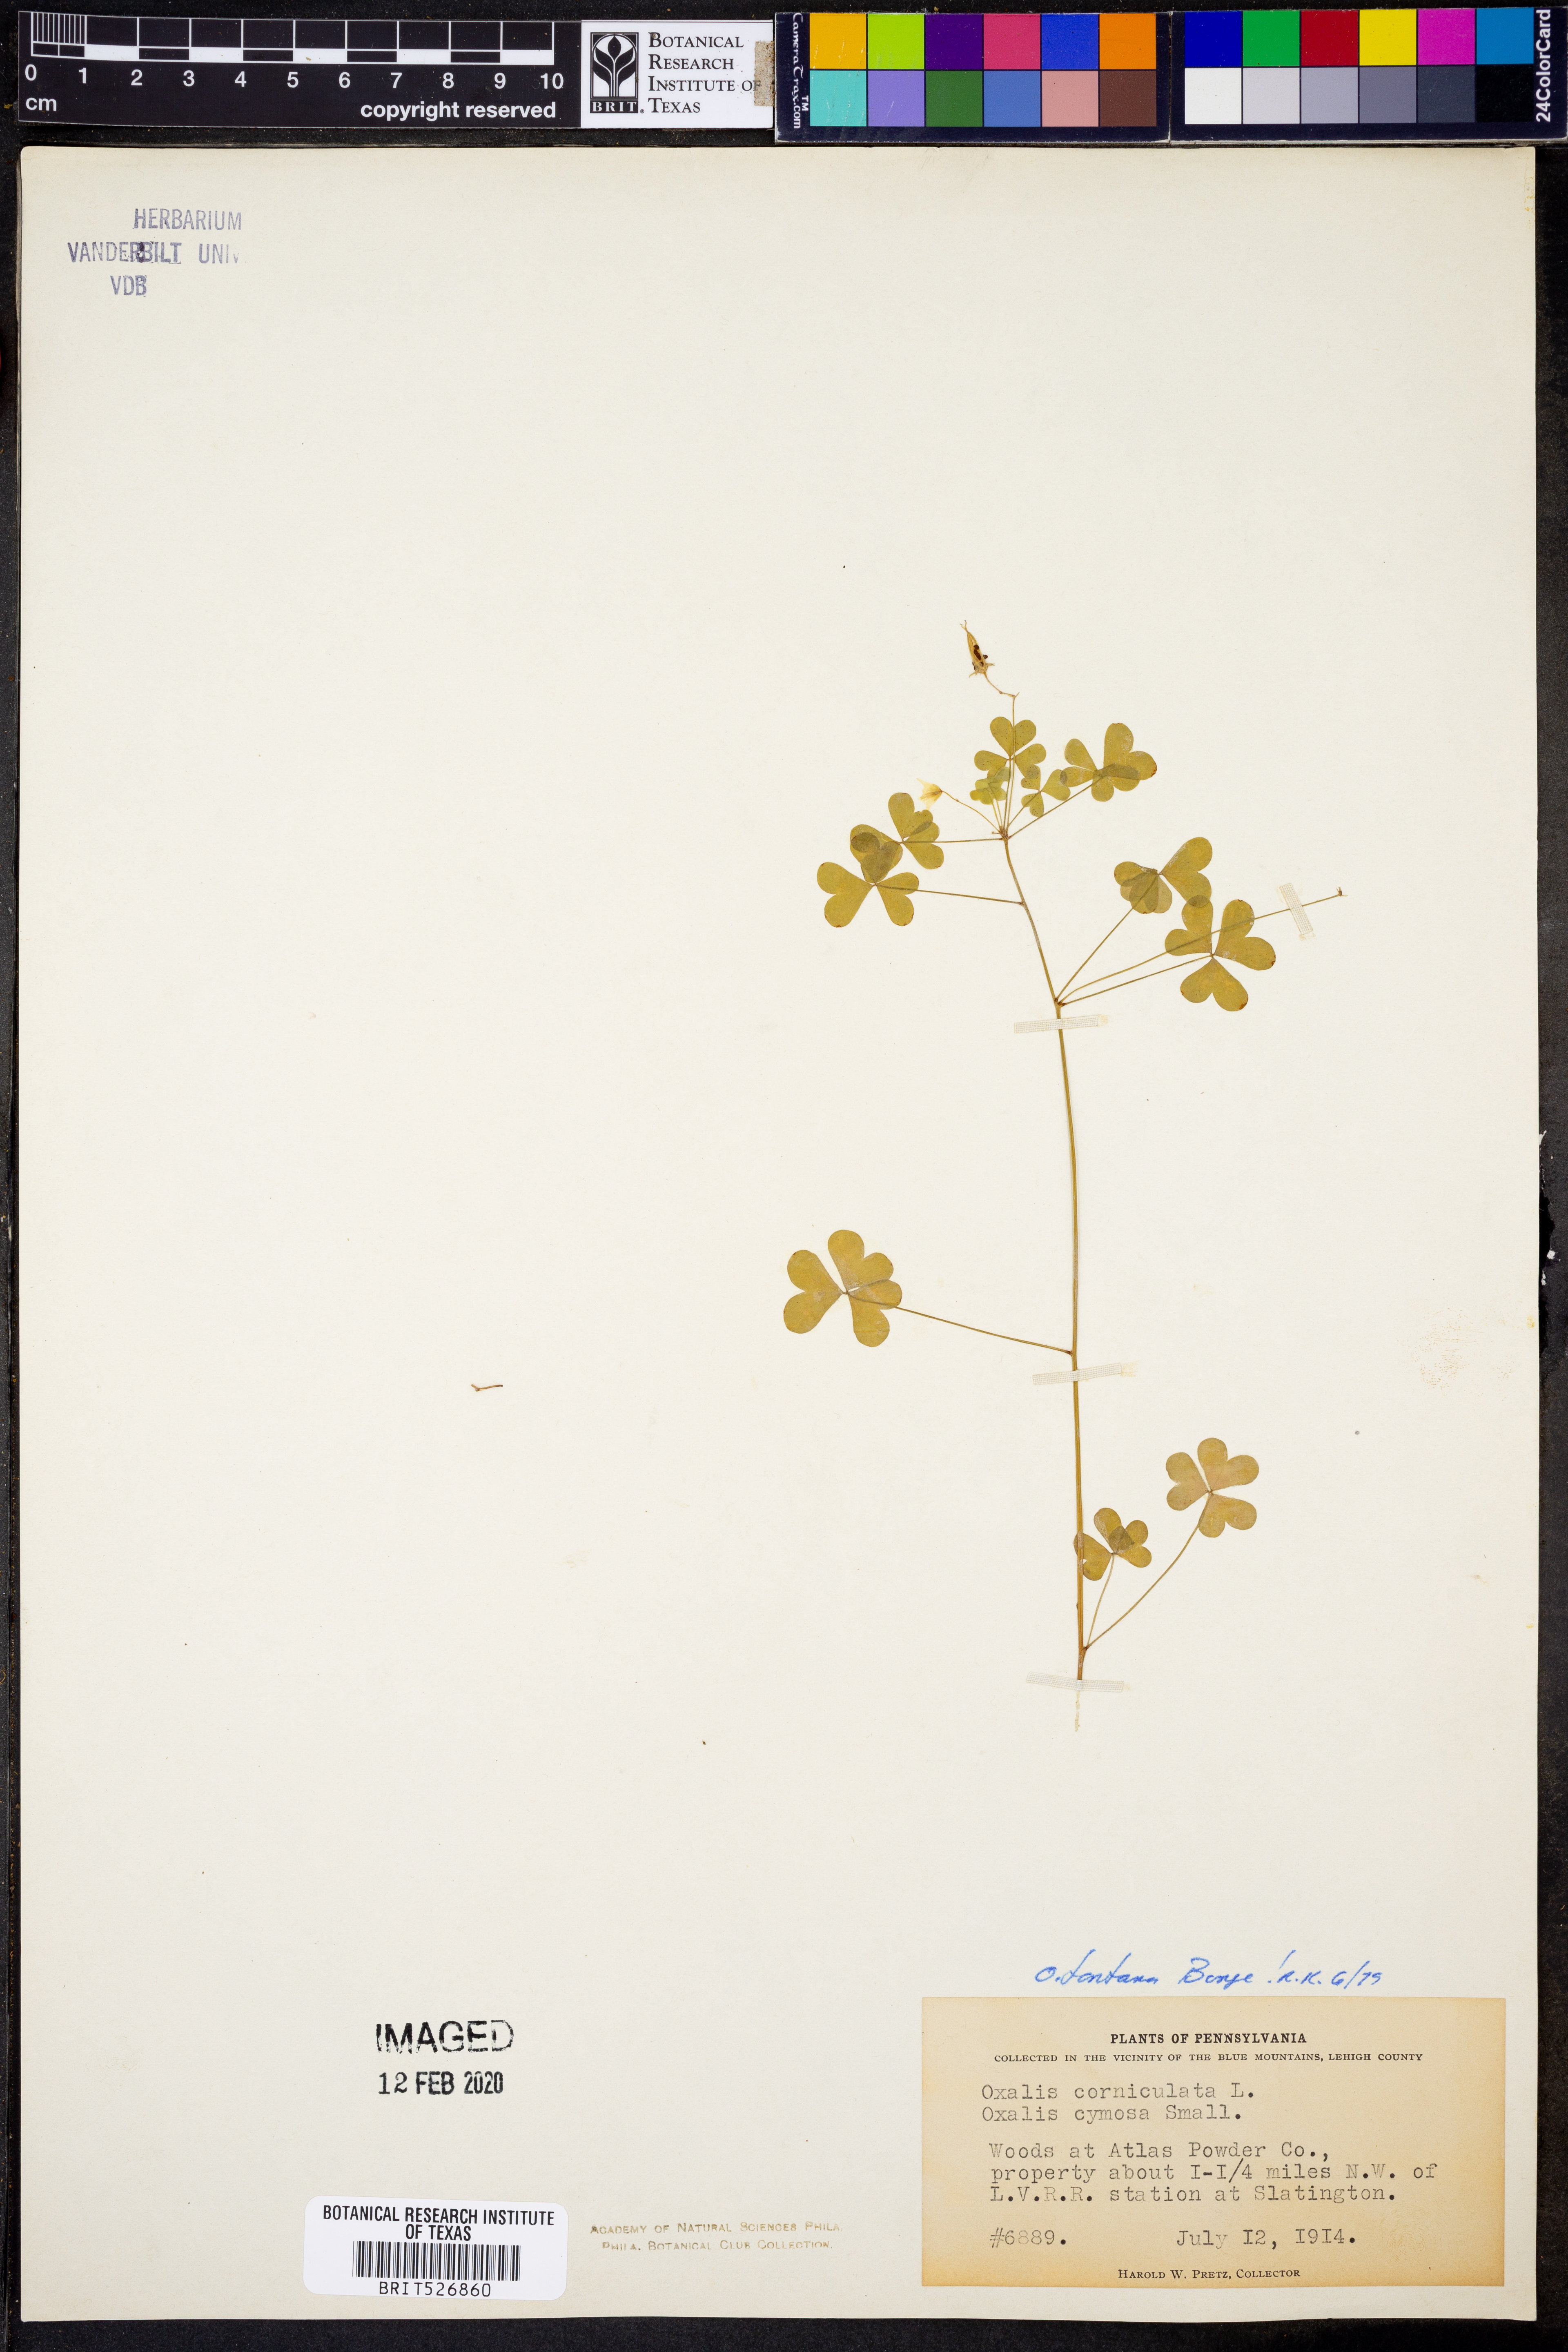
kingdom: Plantae
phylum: Tracheophyta
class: Magnoliopsida
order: Oxalidales
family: Oxalidaceae
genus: Oxalis
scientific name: Oxalis stricta
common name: Upright yellow-sorrel
